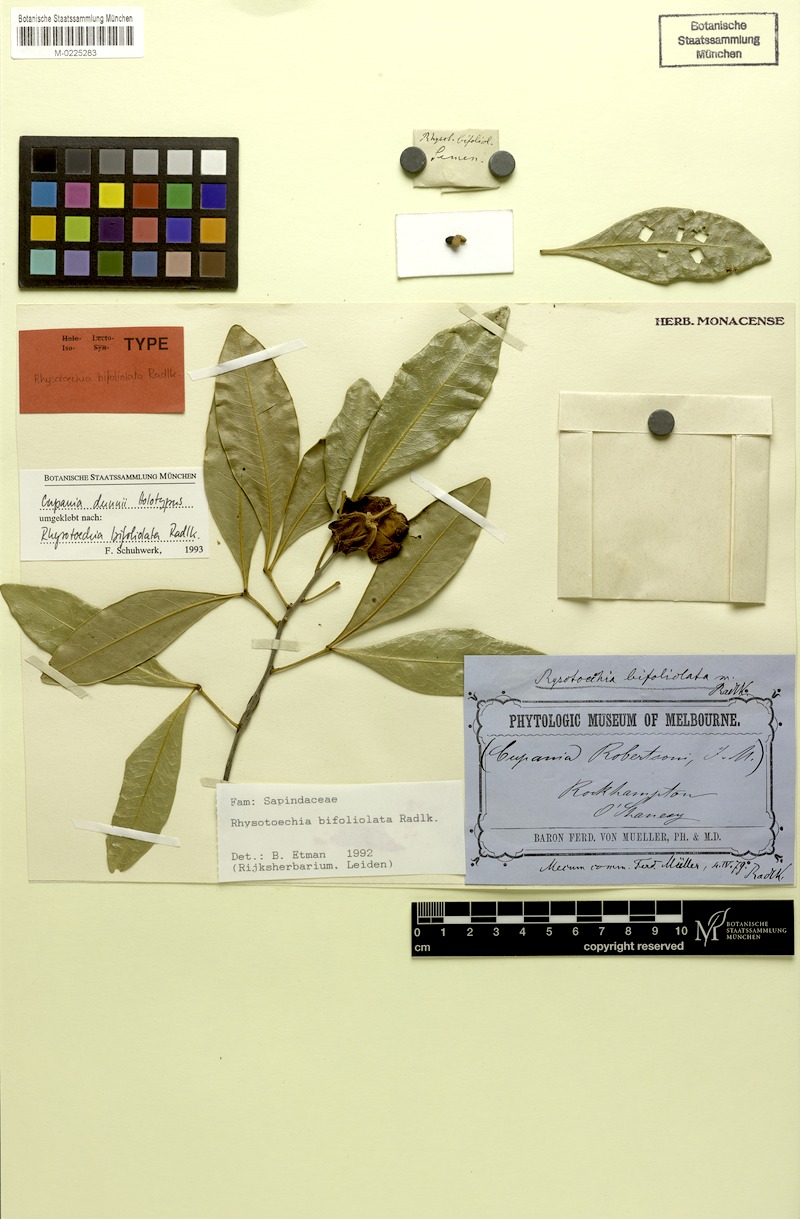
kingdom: Plantae
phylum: Tracheophyta
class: Magnoliopsida
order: Sapindales
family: Sapindaceae
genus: Rhysotoechia
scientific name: Rhysotoechia bifoliolata
